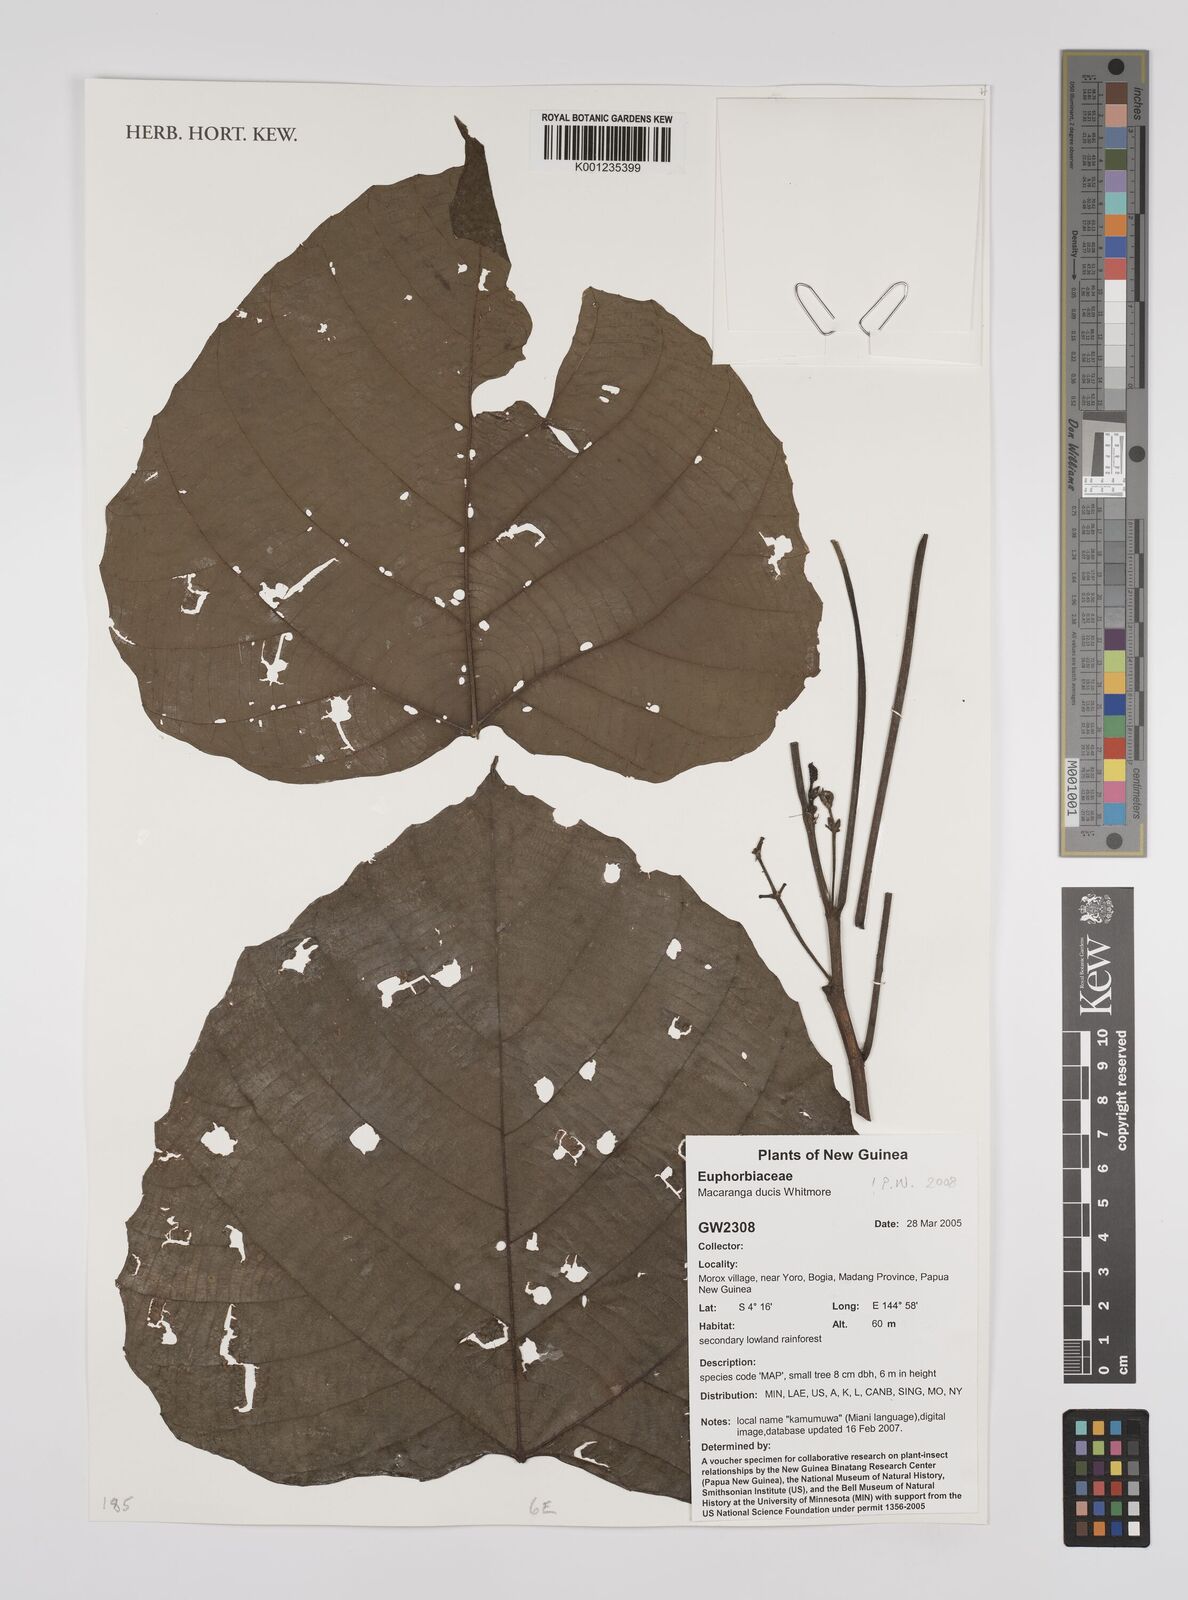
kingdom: Plantae
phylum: Tracheophyta
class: Magnoliopsida
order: Malpighiales
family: Euphorbiaceae
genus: Macaranga
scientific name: Macaranga ducis
